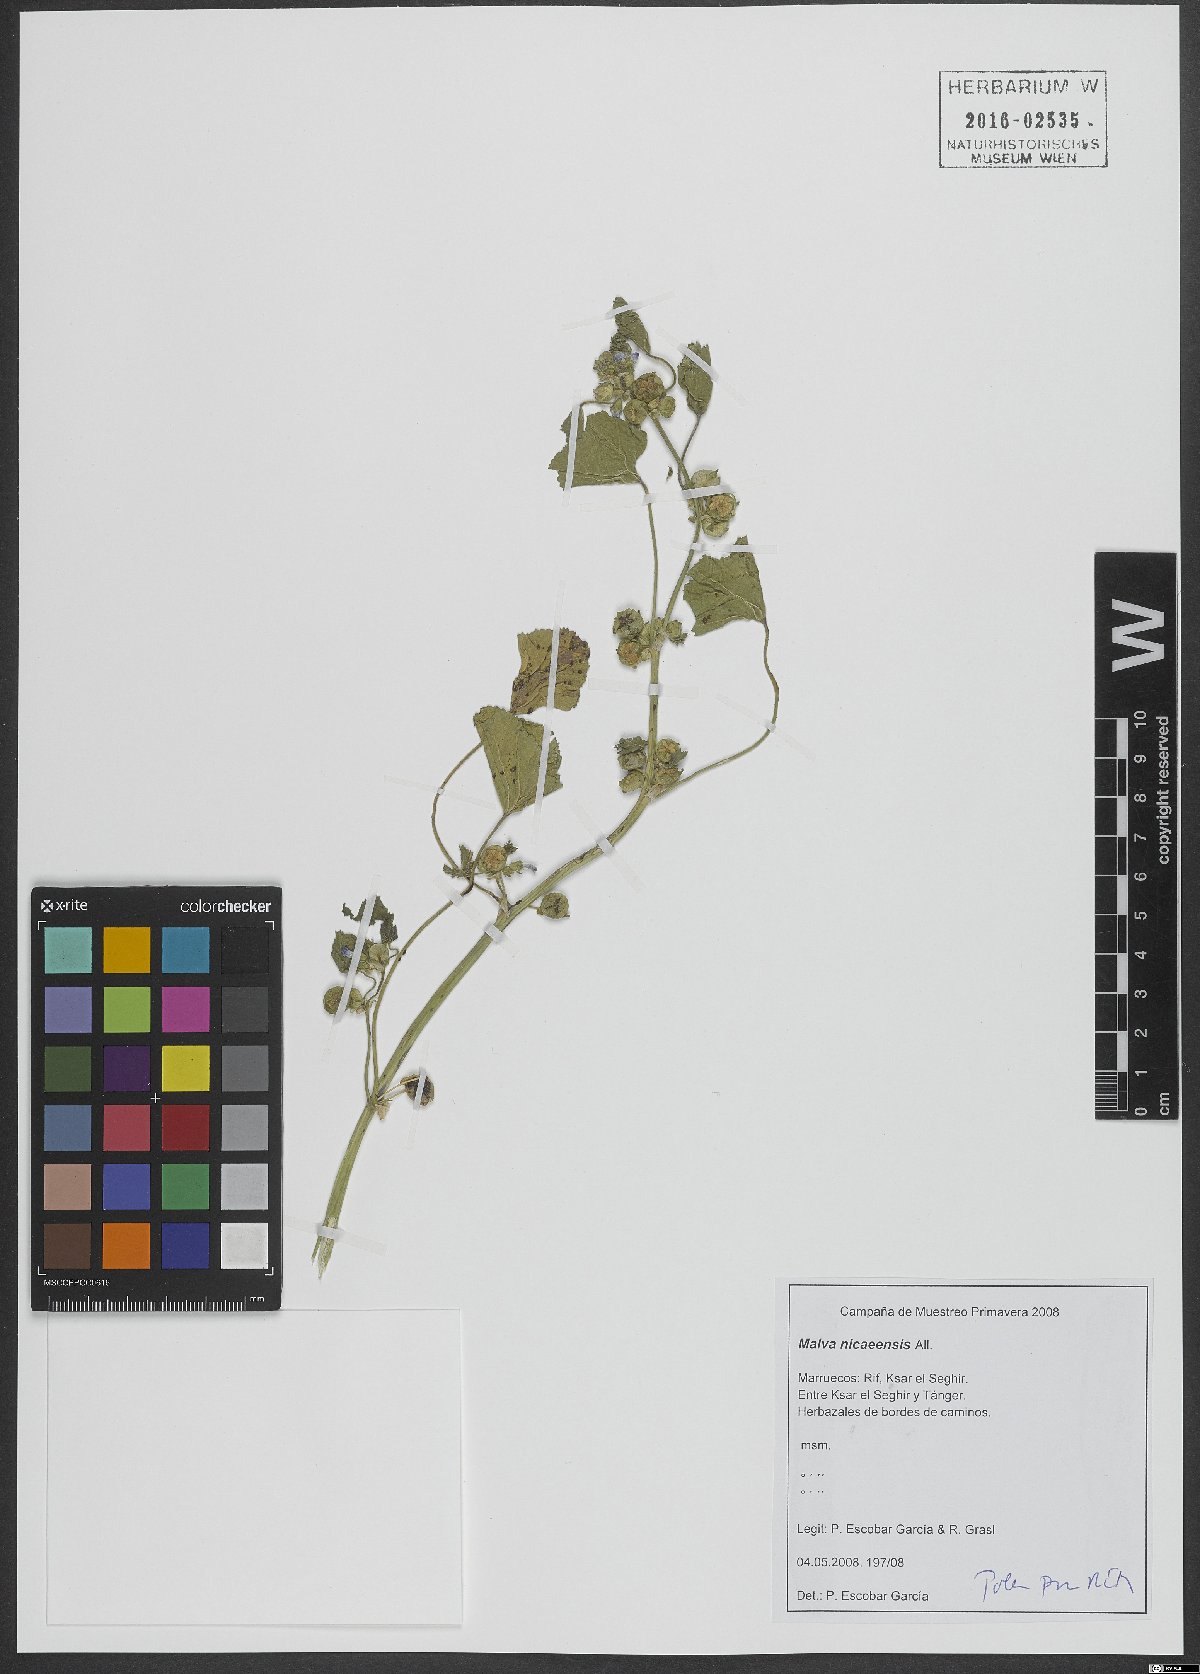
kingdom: Plantae
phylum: Tracheophyta
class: Magnoliopsida
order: Malvales
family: Malvaceae
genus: Malva
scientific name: Malva nicaeensis
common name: French mallow
